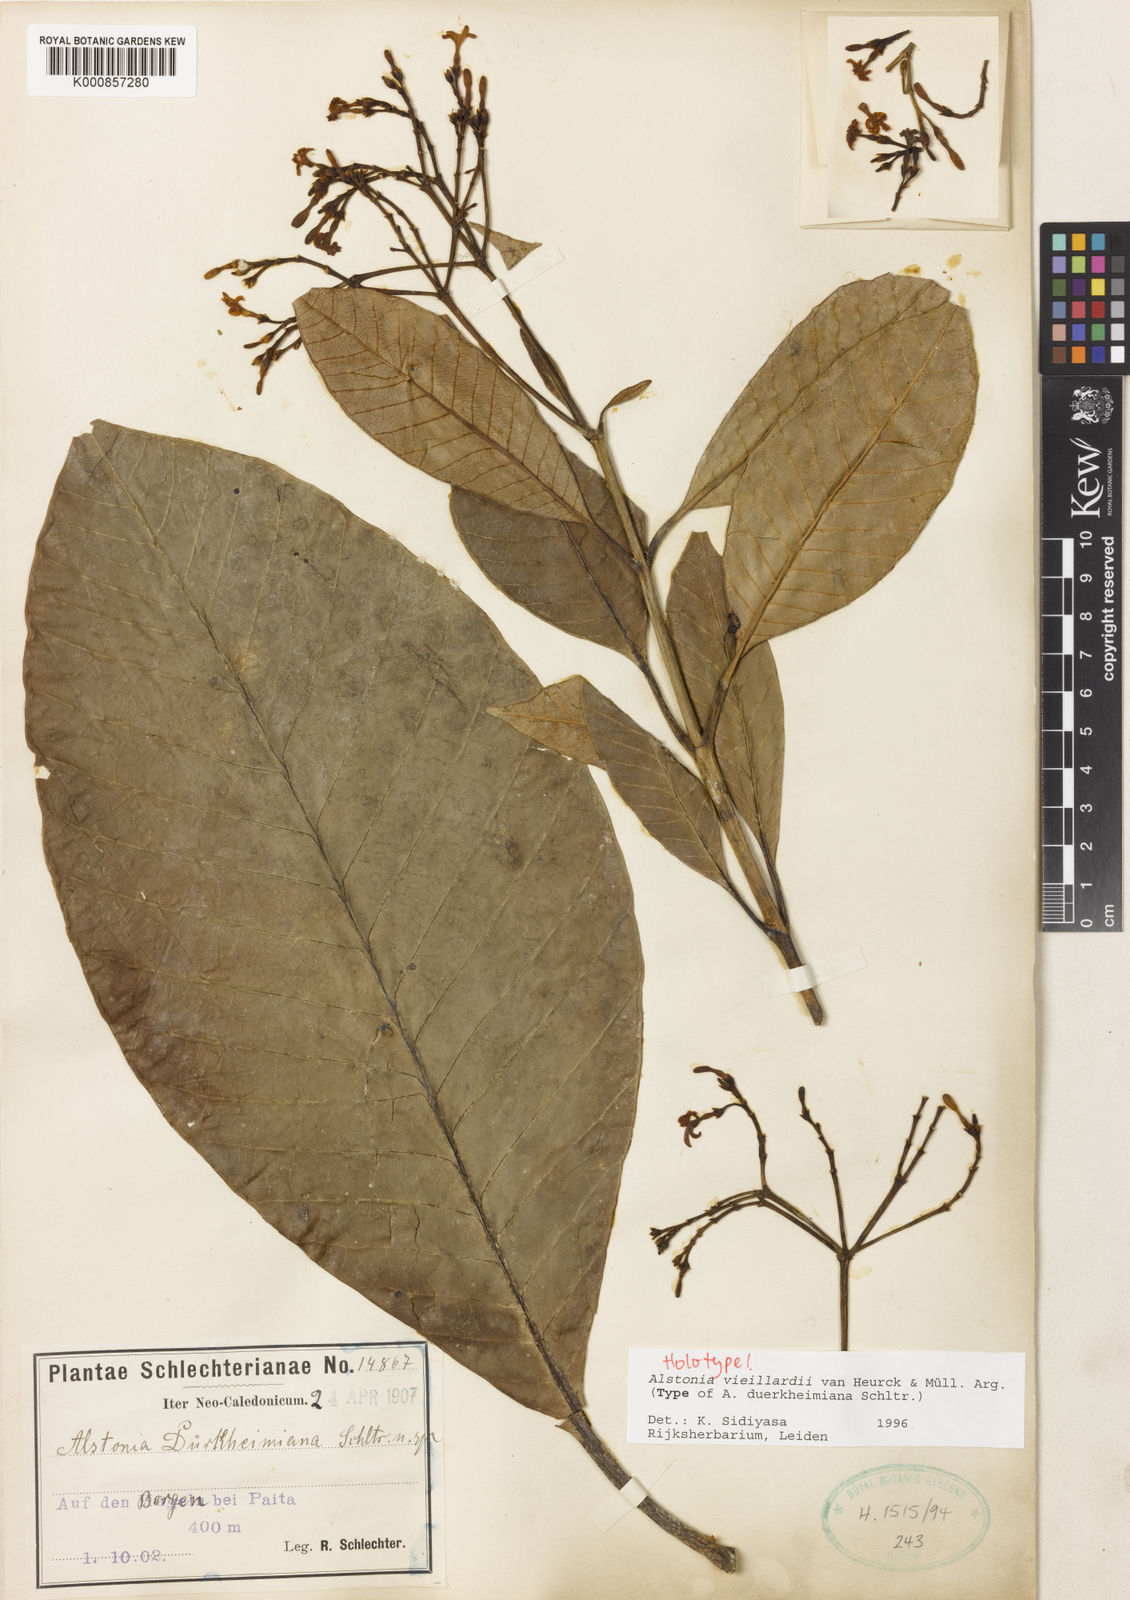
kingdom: Plantae
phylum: Tracheophyta
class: Magnoliopsida
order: Gentianales
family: Apocynaceae
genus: Alstonia
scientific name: Alstonia
